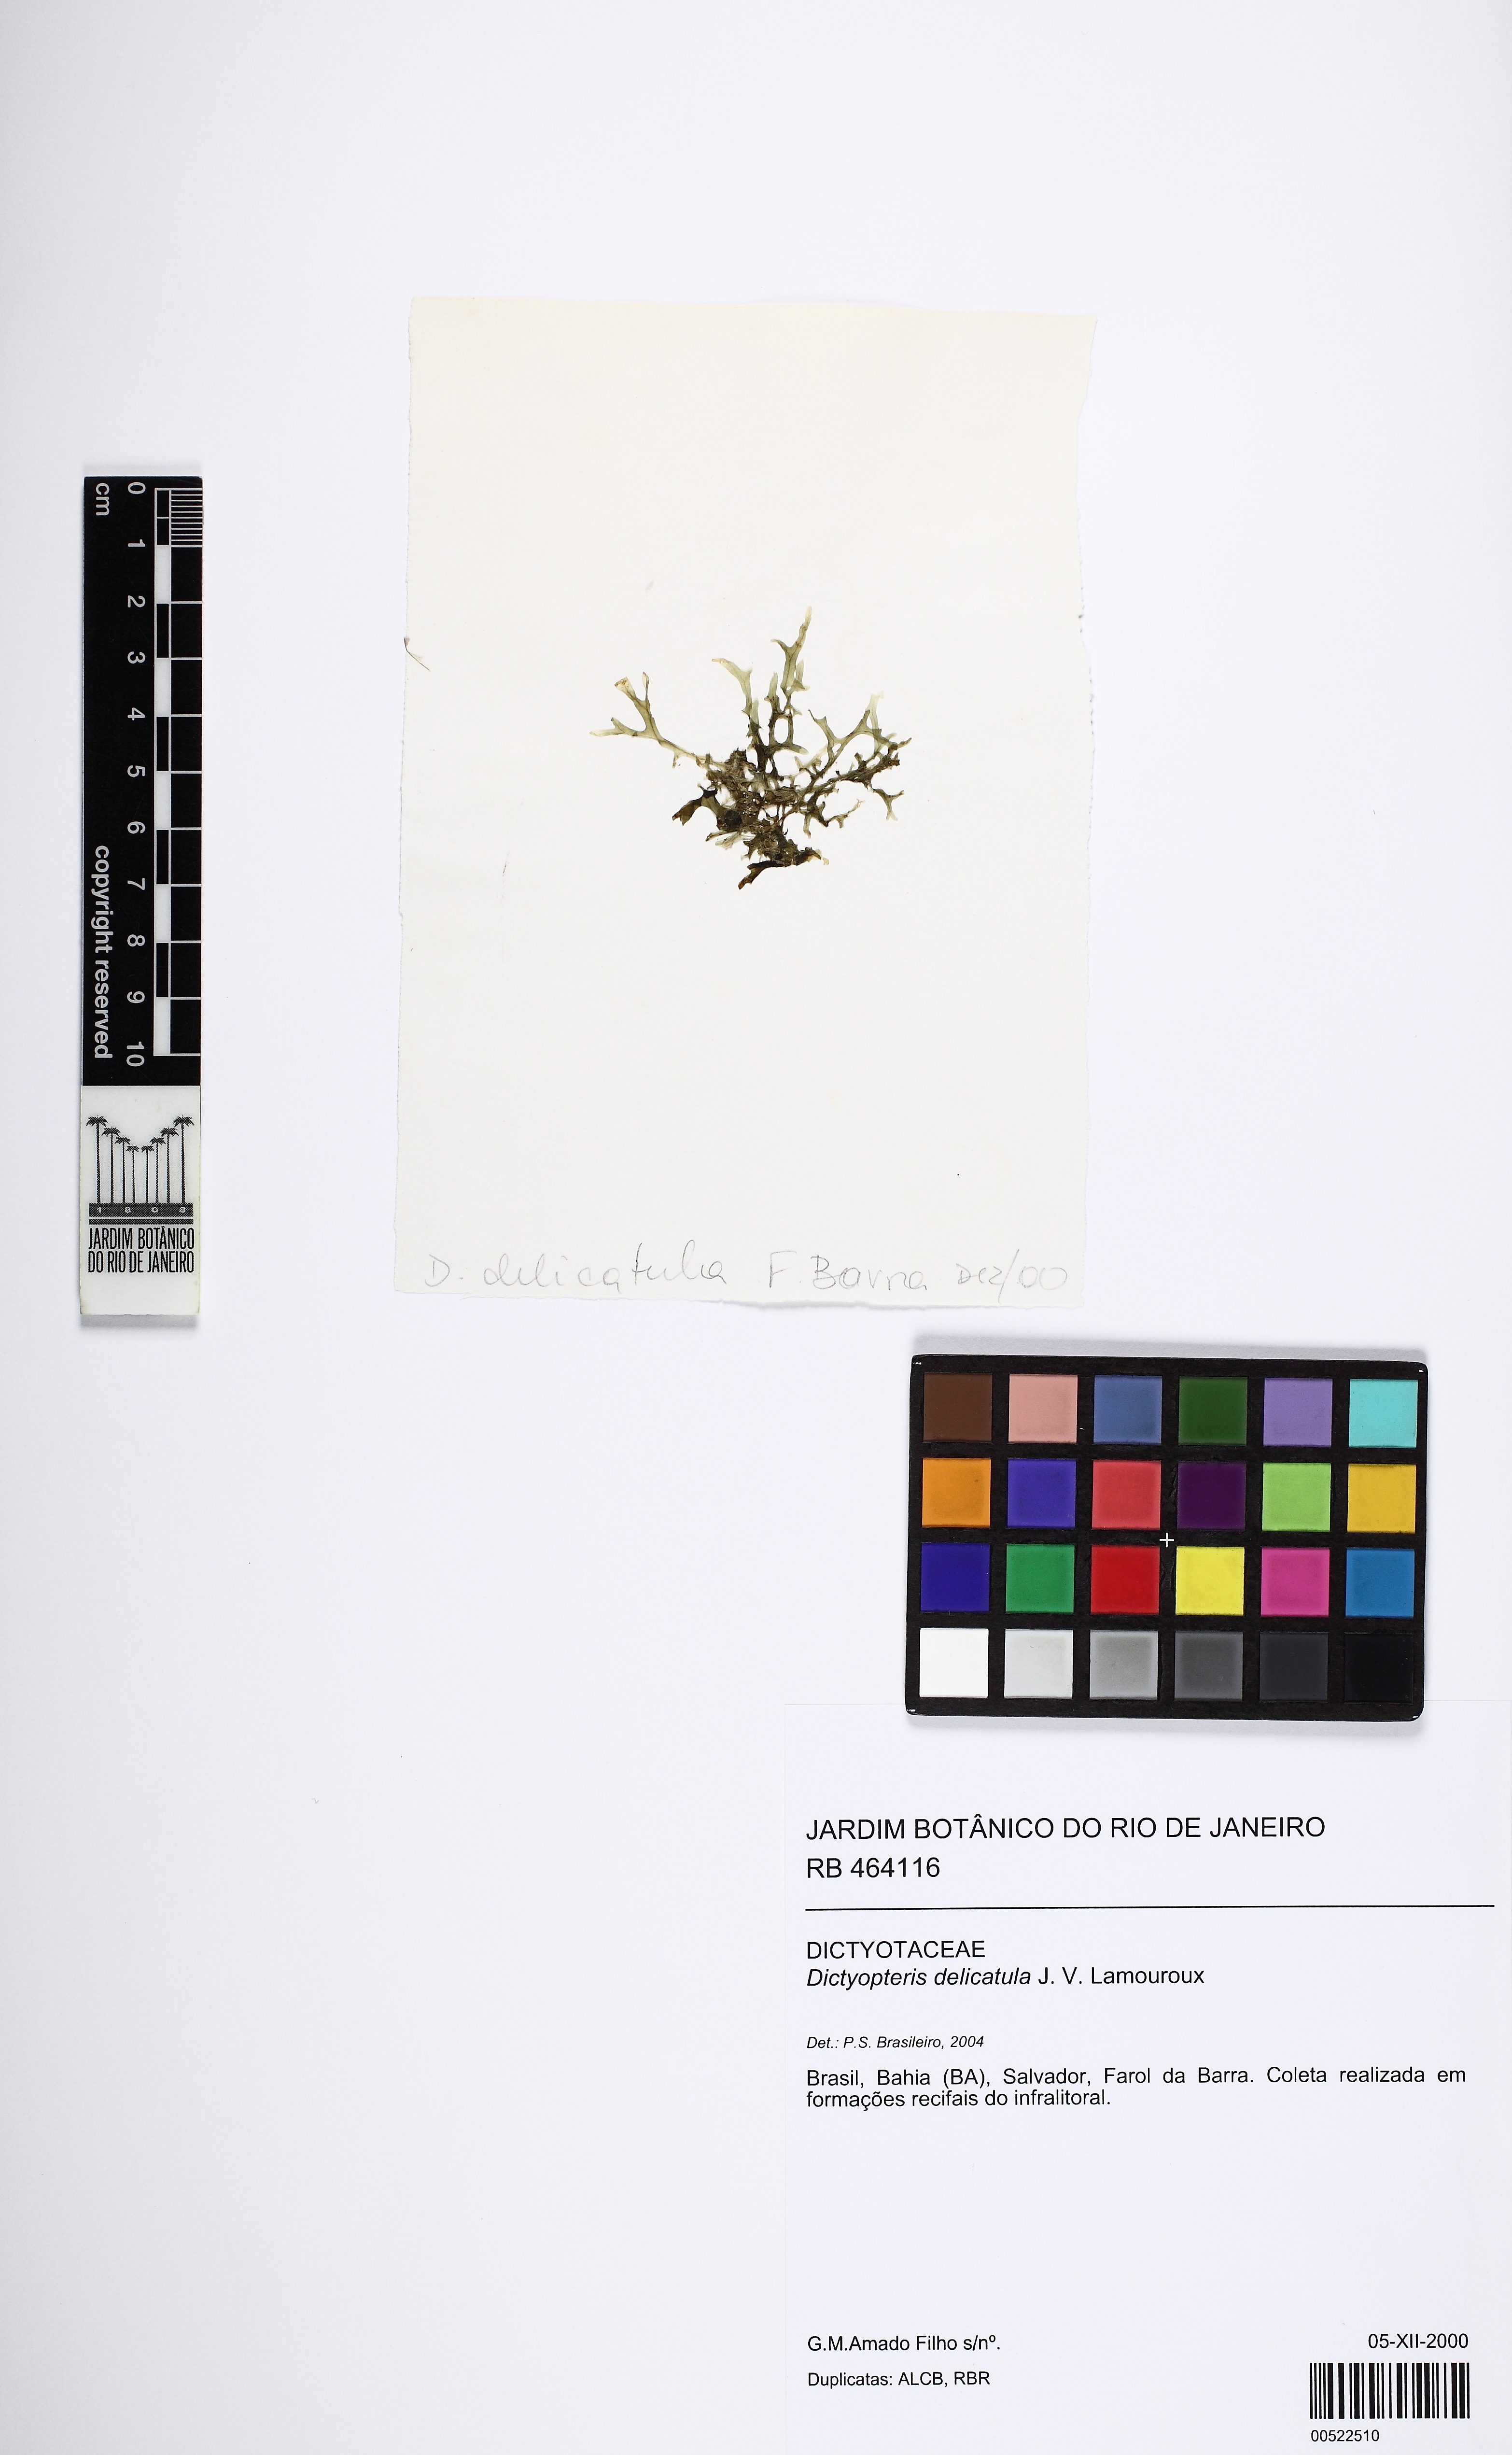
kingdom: Chromista
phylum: Ochrophyta
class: Phaeophyceae
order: Dictyotales
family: Dictyotaceae
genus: Dictyopteris
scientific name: Dictyopteris delicatula
